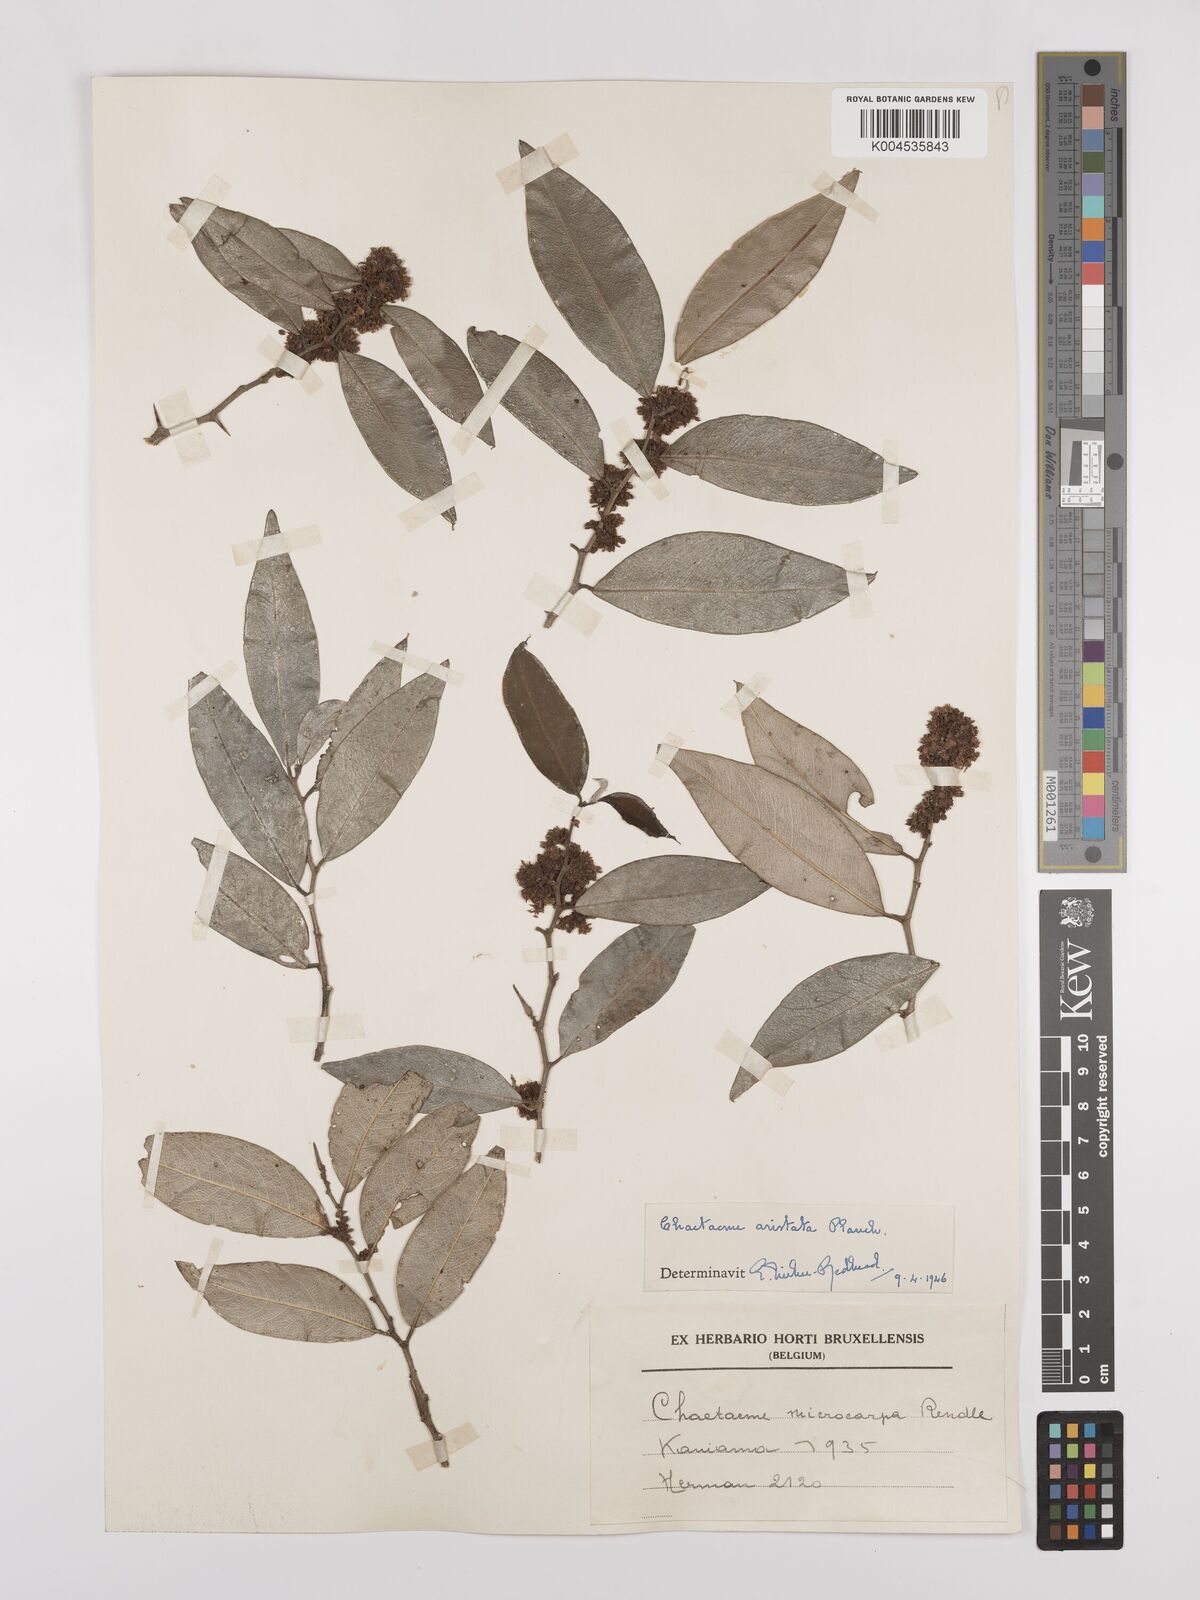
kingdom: Plantae
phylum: Tracheophyta
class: Magnoliopsida
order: Rosales
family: Cannabaceae
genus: Chaetachme
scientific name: Chaetachme aristata
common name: Thorny elm
